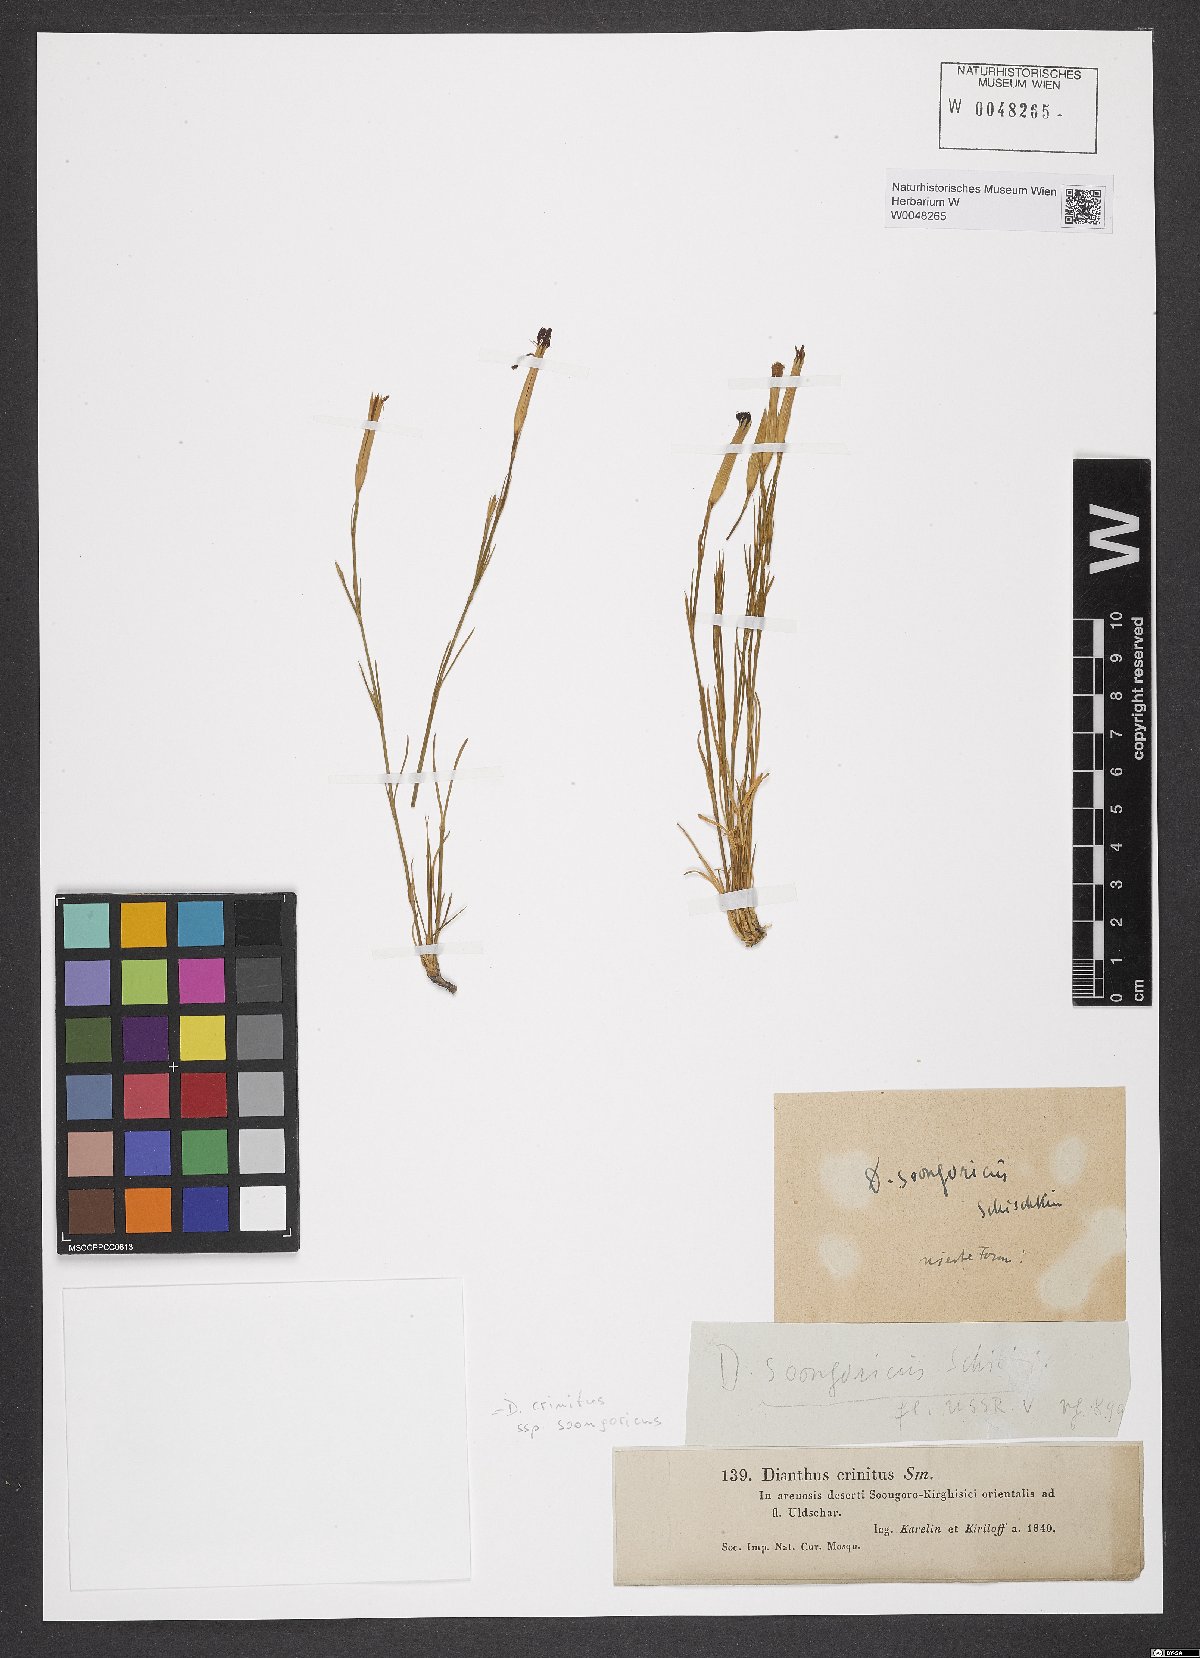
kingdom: Plantae
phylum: Tracheophyta
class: Magnoliopsida
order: Caryophyllales
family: Caryophyllaceae
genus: Dianthus
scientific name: Dianthus crinitus
